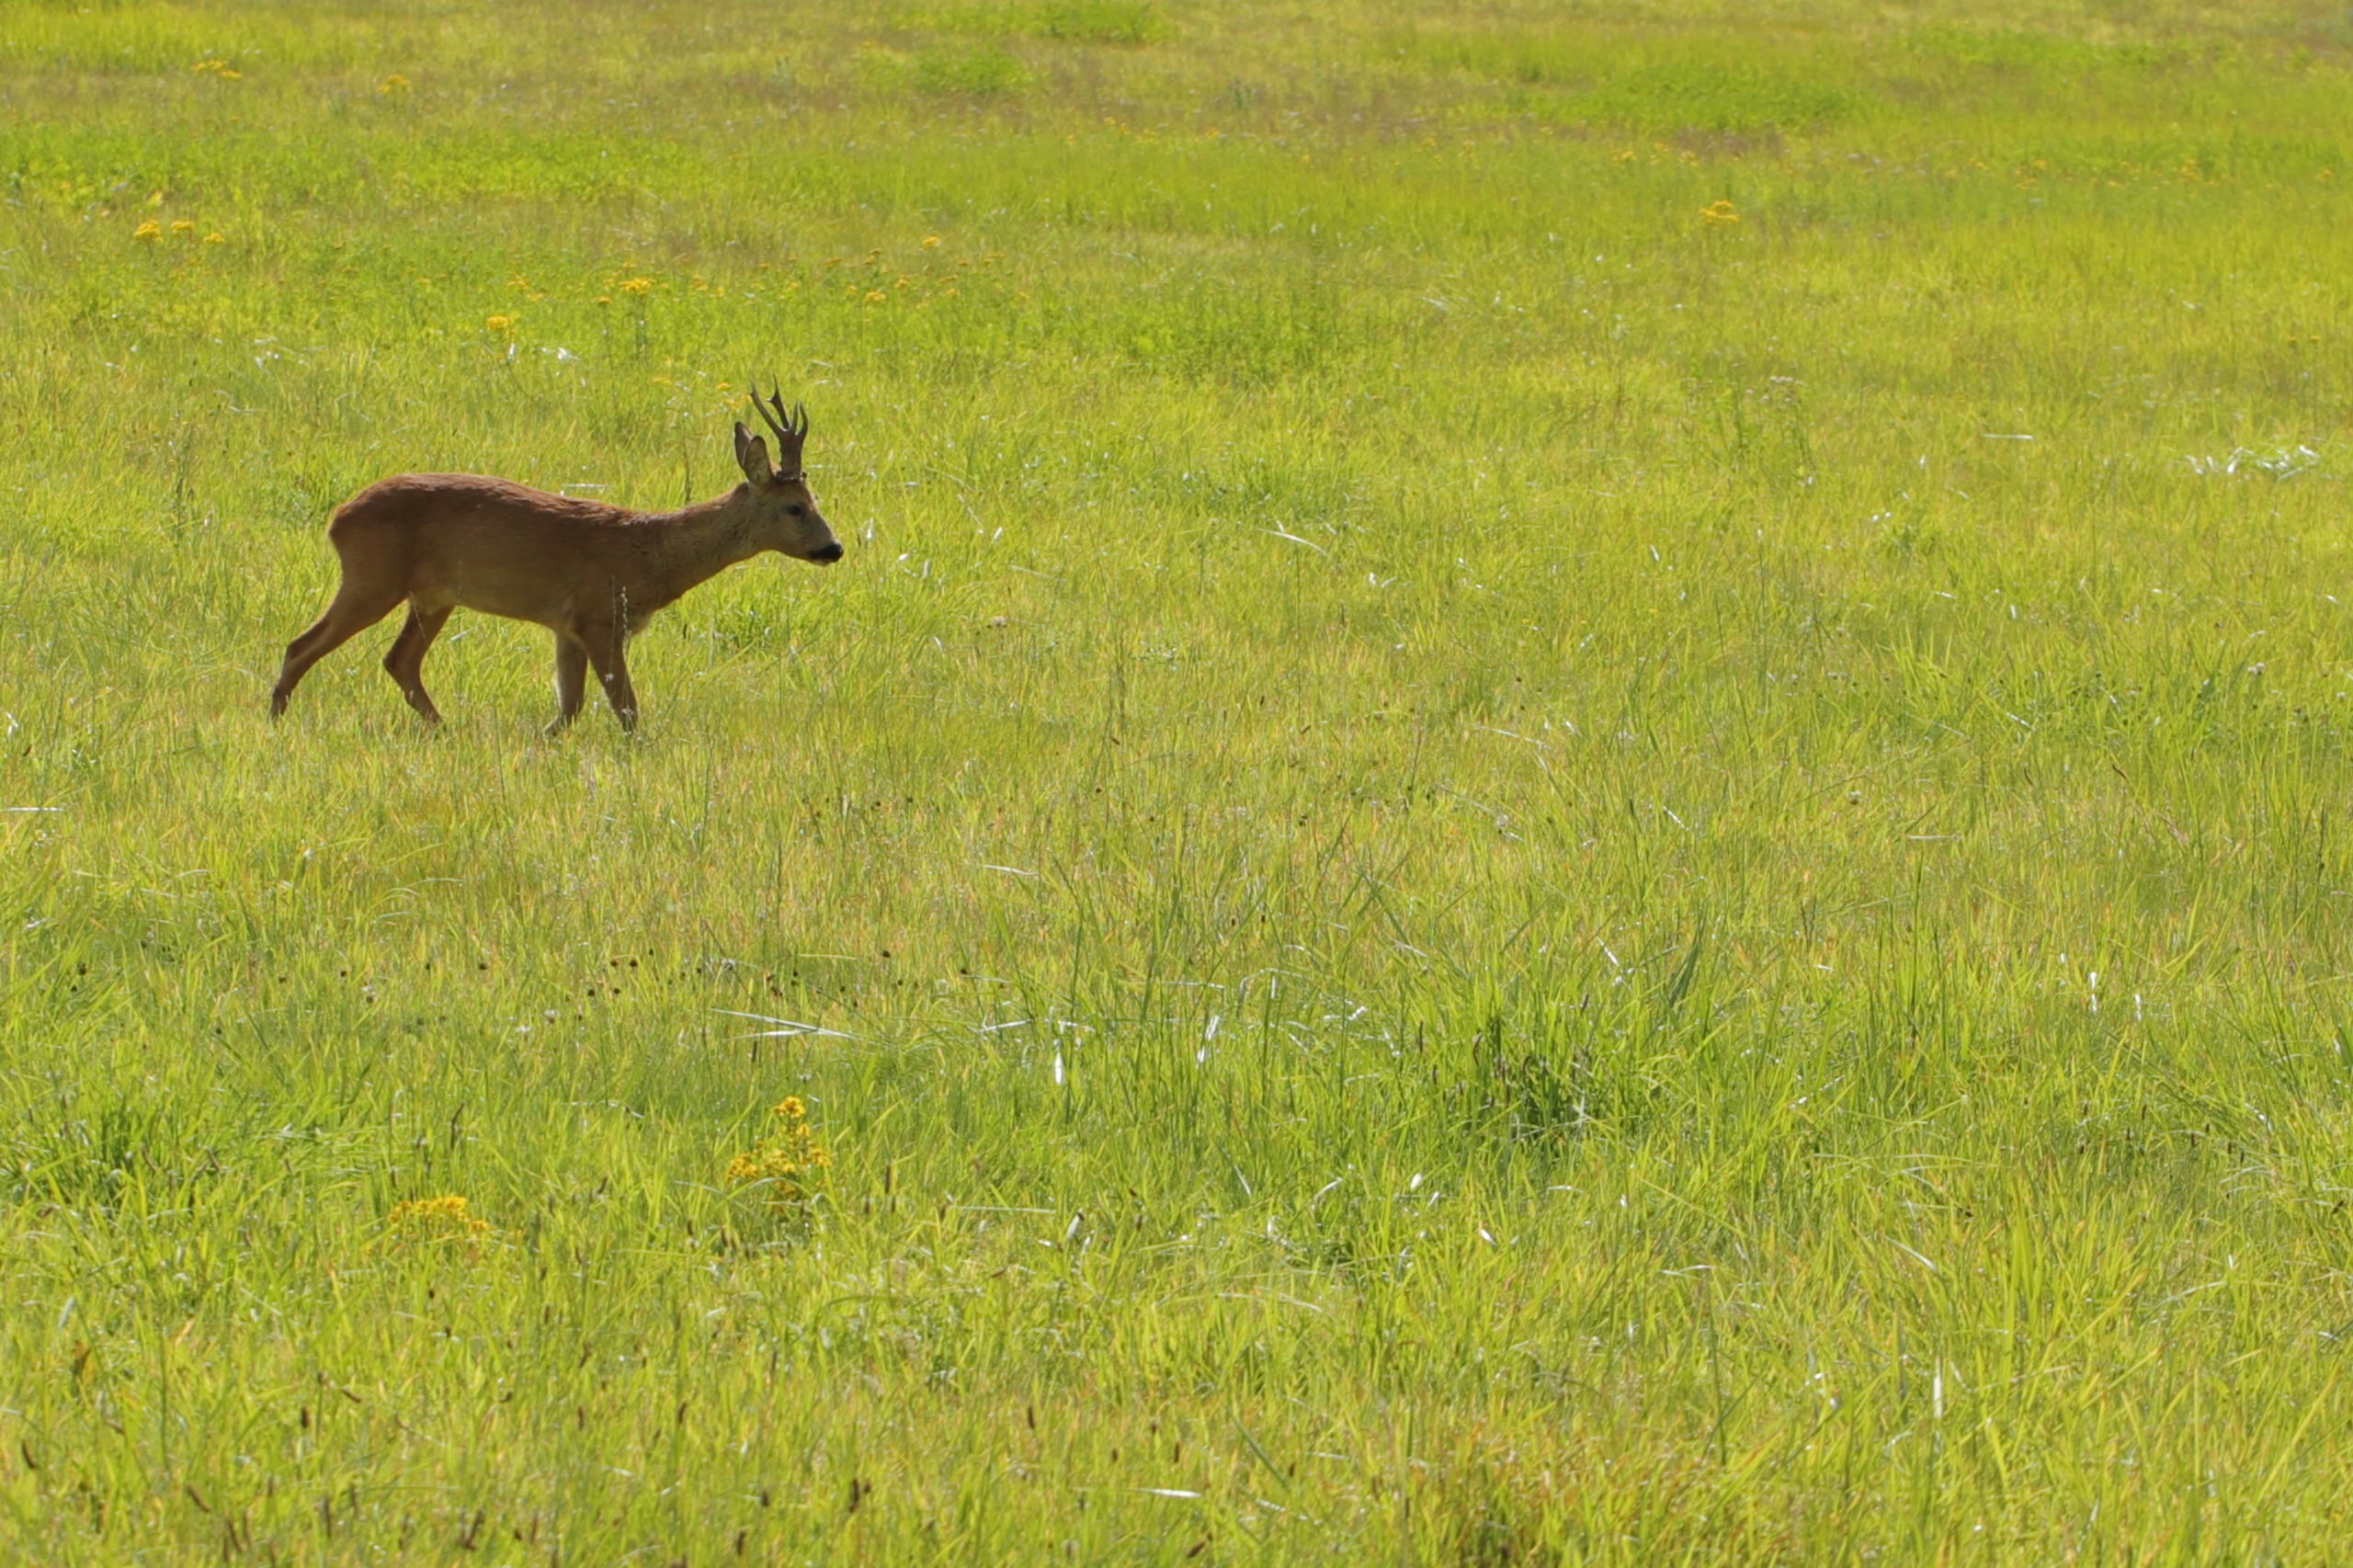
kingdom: Animalia
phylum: Chordata
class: Mammalia
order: Artiodactyla
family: Cervidae
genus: Capreolus
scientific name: Capreolus capreolus
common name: Rådyr
